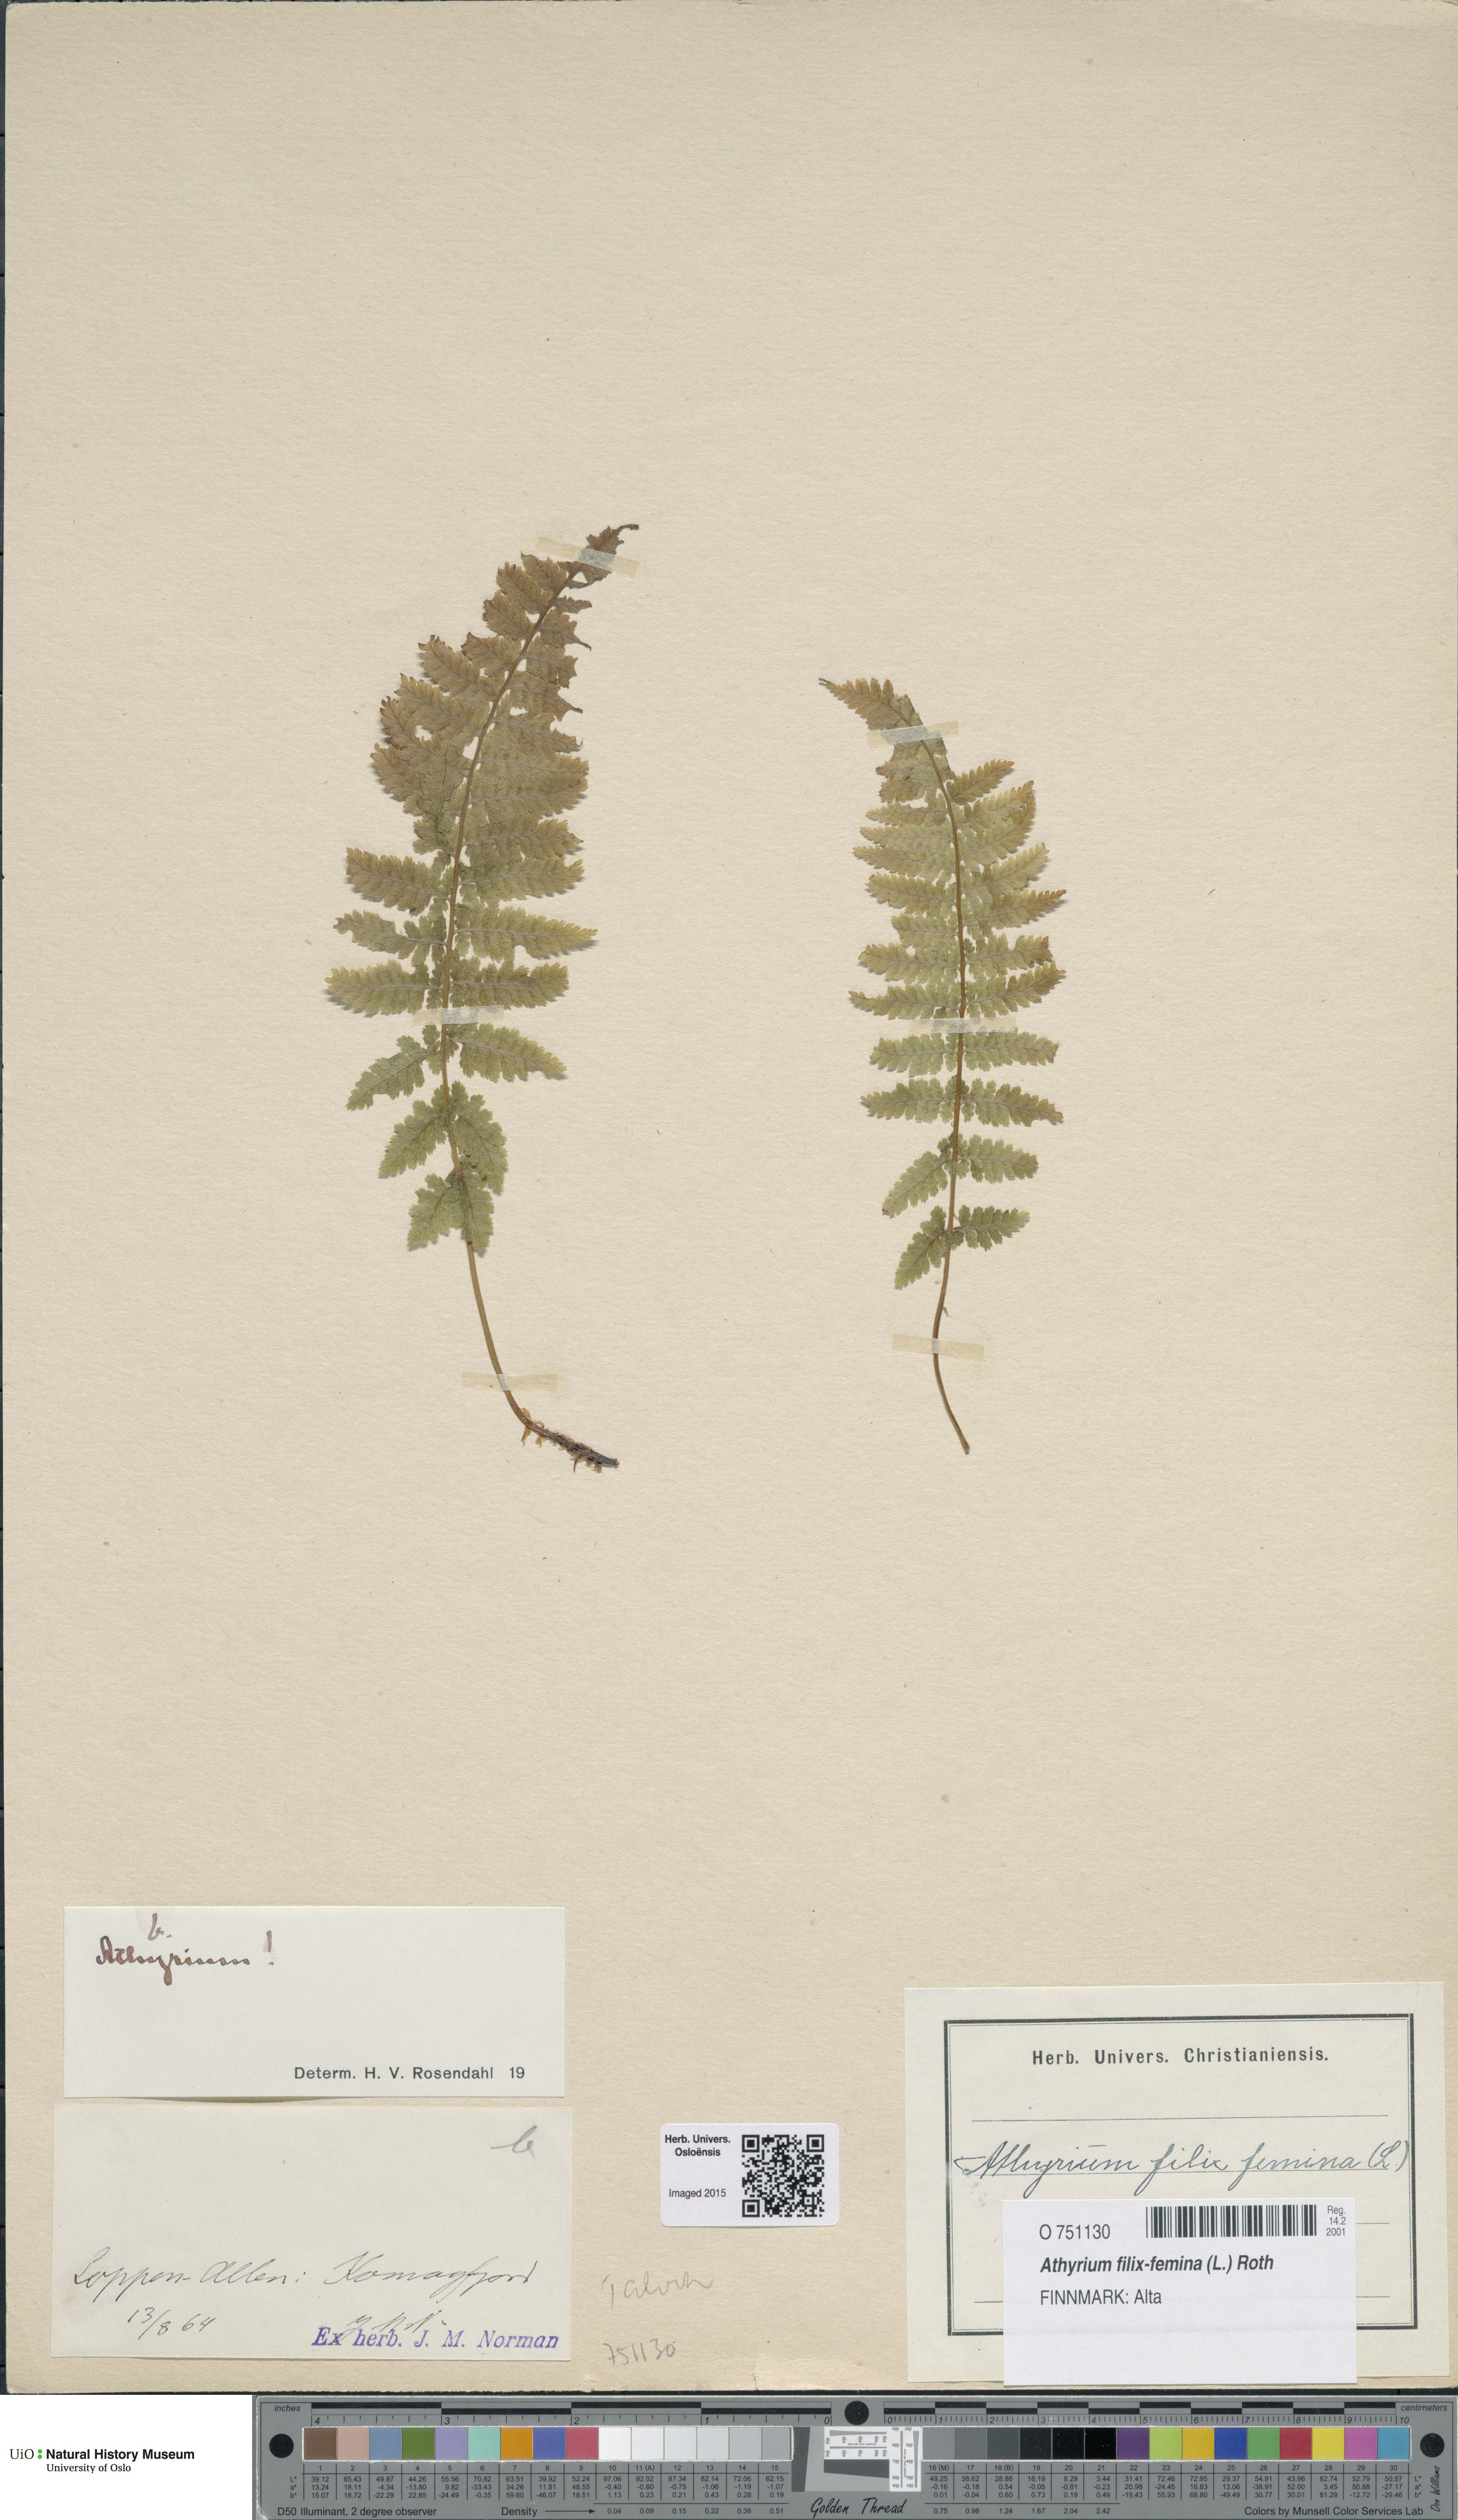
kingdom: Plantae
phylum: Tracheophyta
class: Polypodiopsida
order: Polypodiales
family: Athyriaceae
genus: Athyrium
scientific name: Athyrium filix-femina
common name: Lady fern
